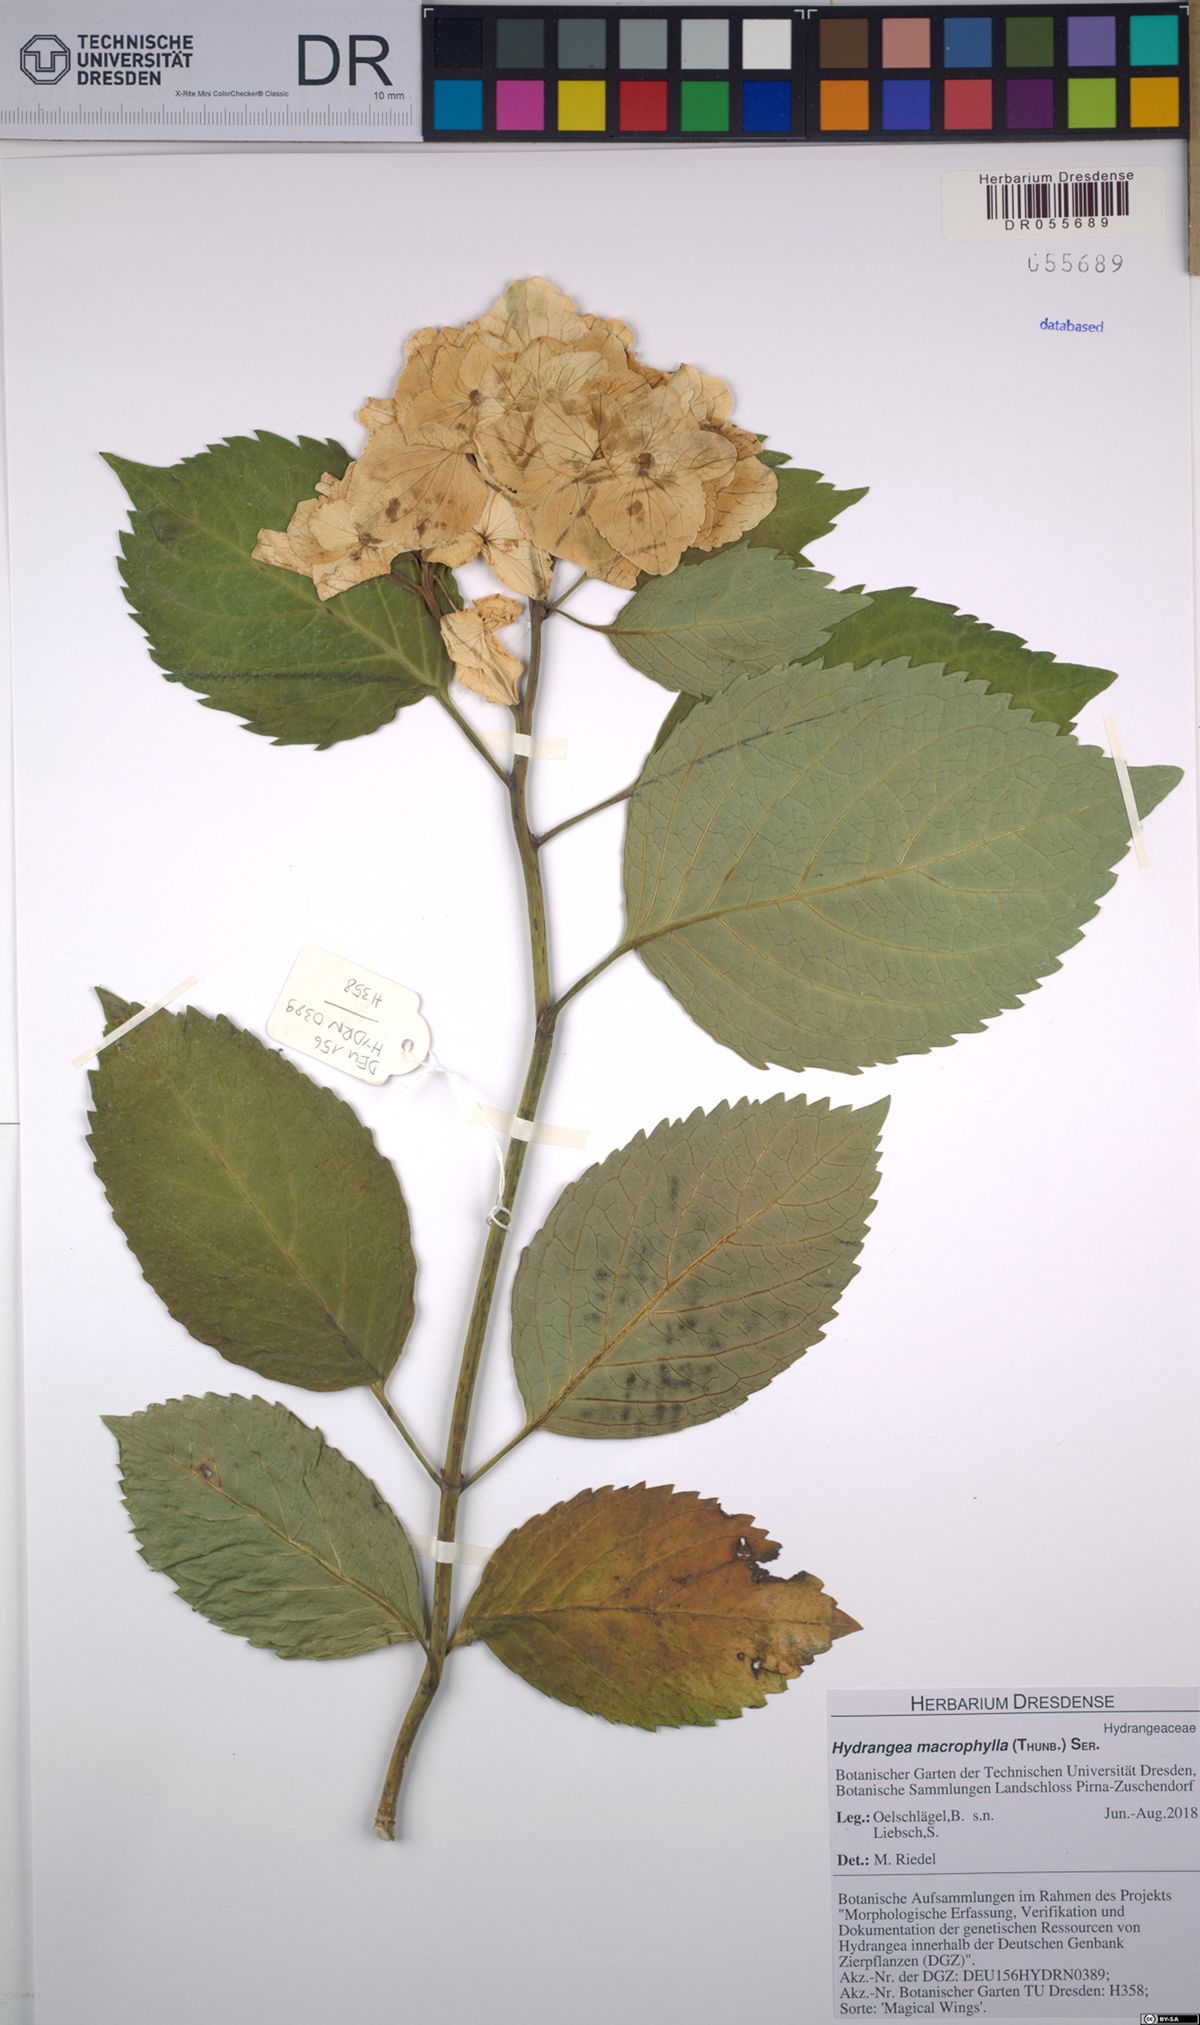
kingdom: Plantae
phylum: Tracheophyta
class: Magnoliopsida
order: Cornales
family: Hydrangeaceae
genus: Hydrangea
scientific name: Hydrangea macrophylla
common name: Hydrangea
